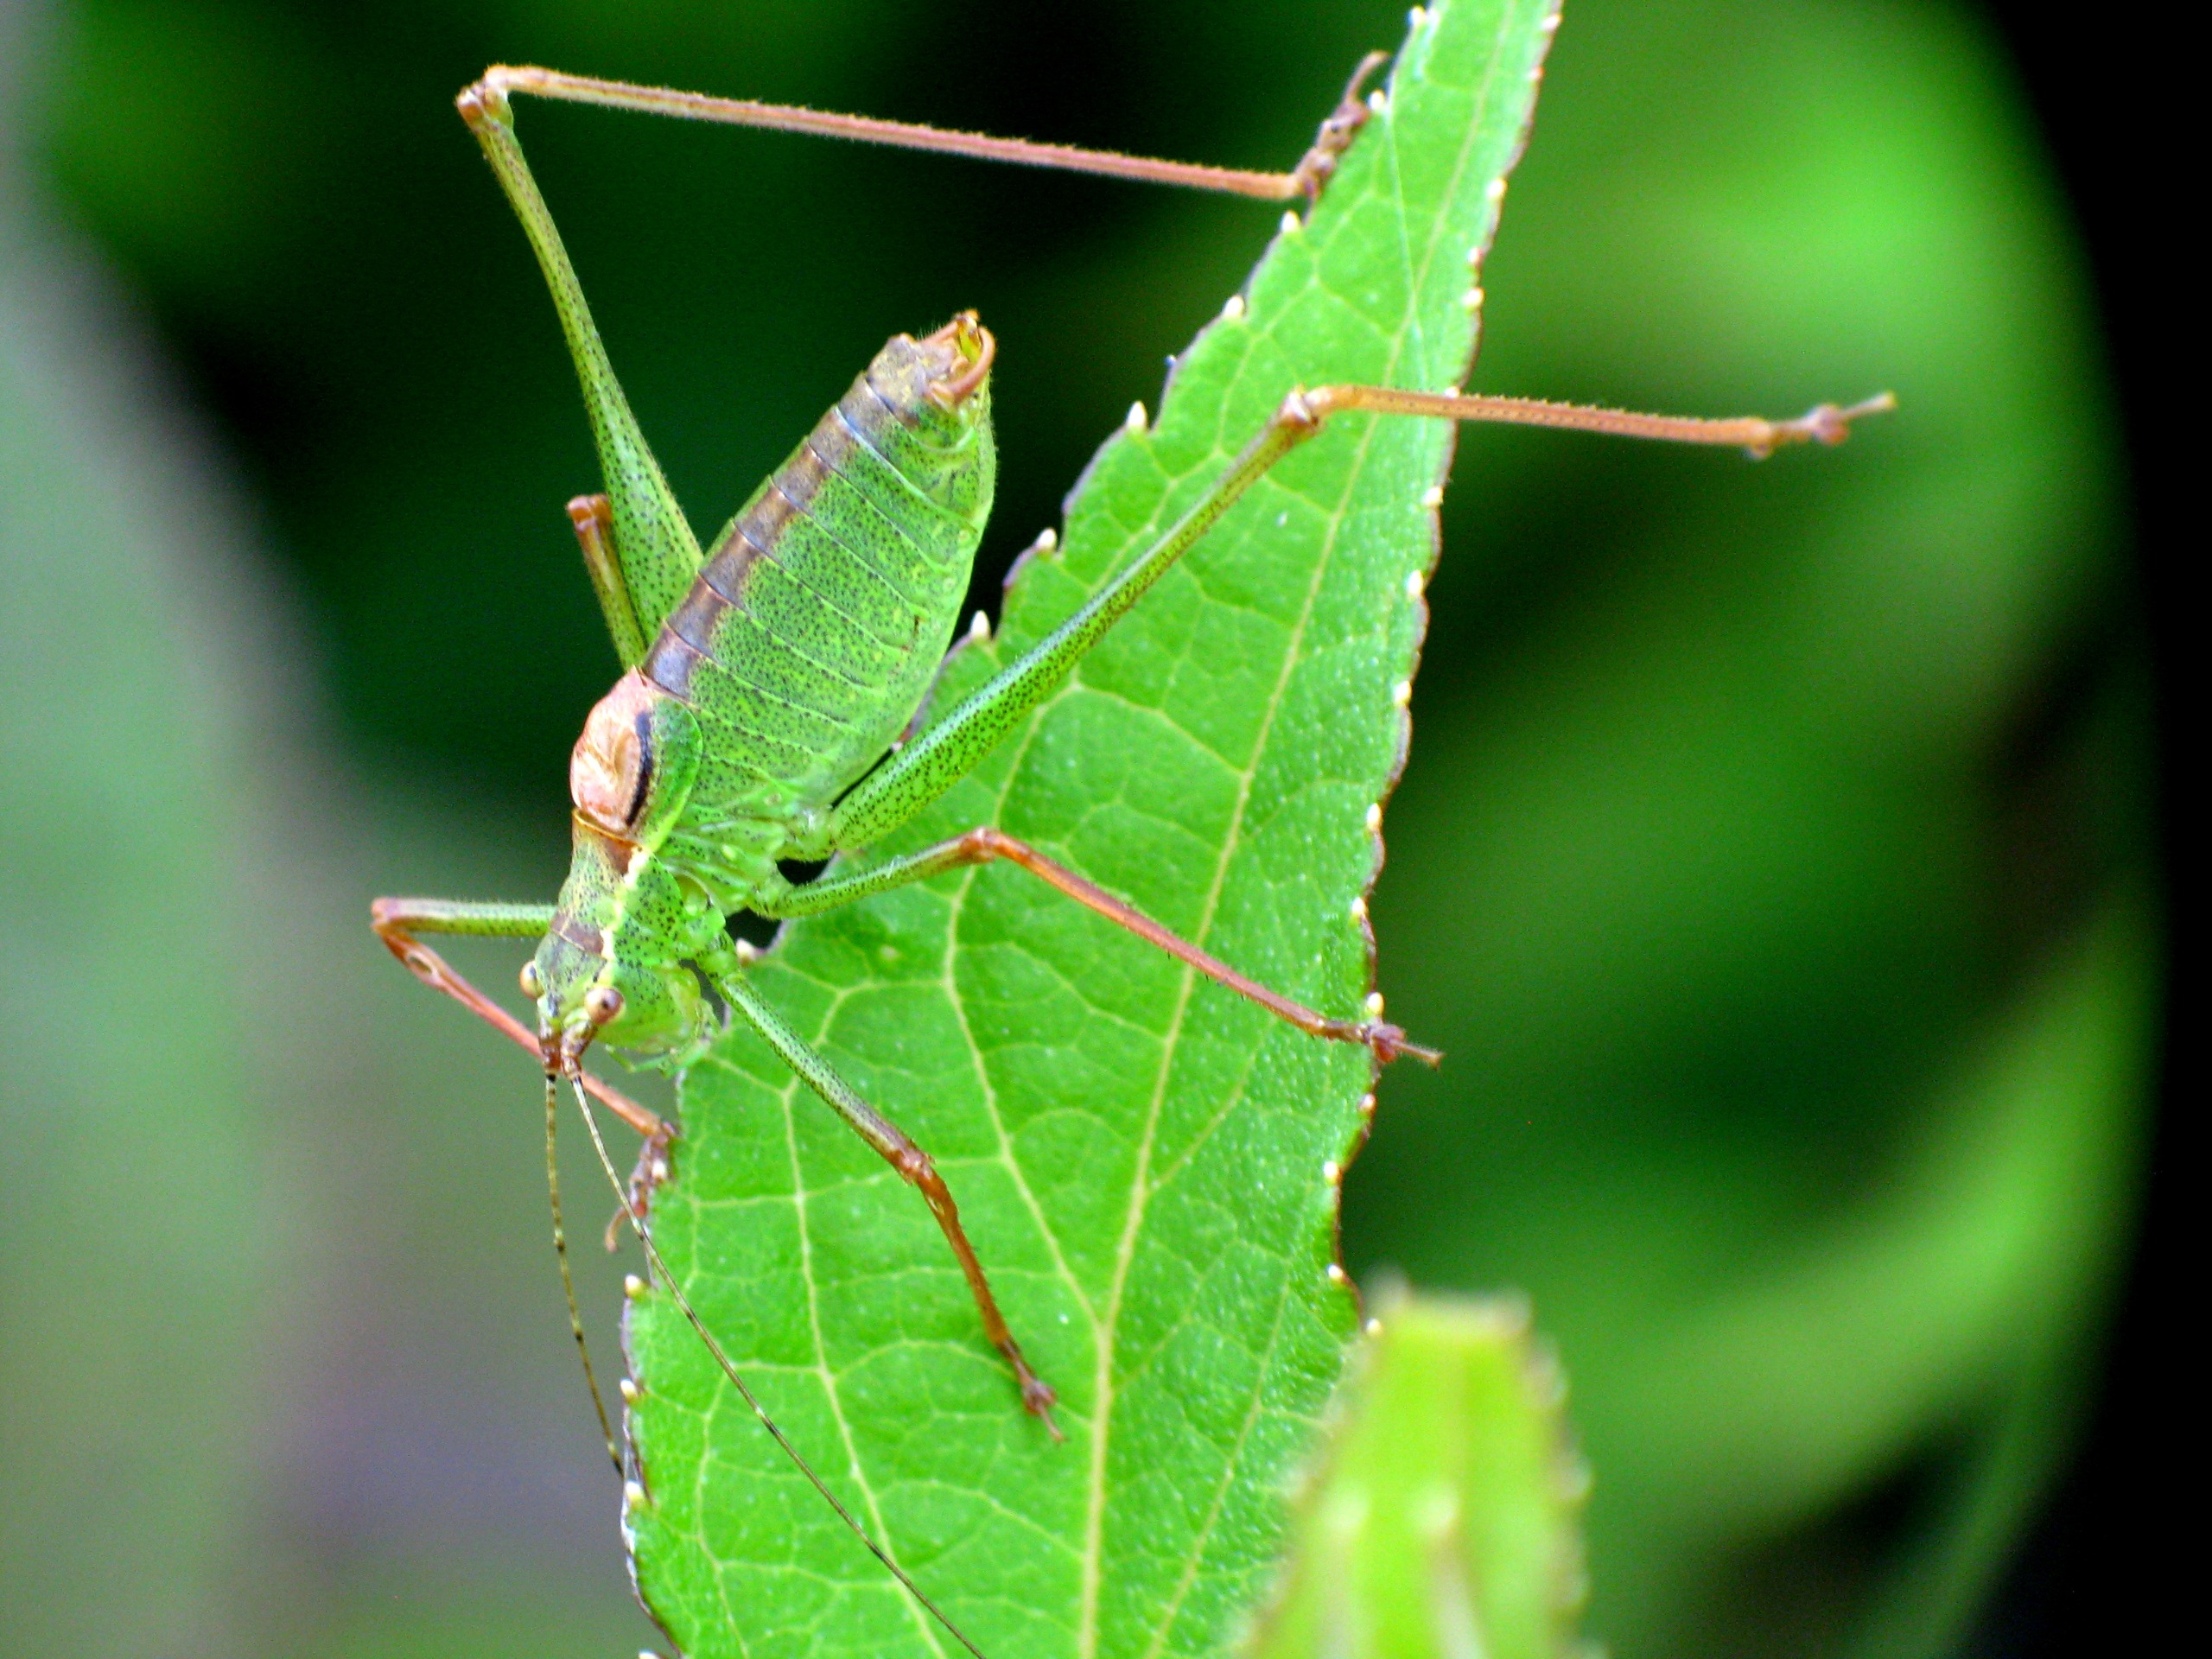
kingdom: Animalia
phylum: Arthropoda
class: Insecta
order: Orthoptera
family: Tettigoniidae
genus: Leptophyes
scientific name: Leptophyes punctatissima
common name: Krumknivgræshoppe
